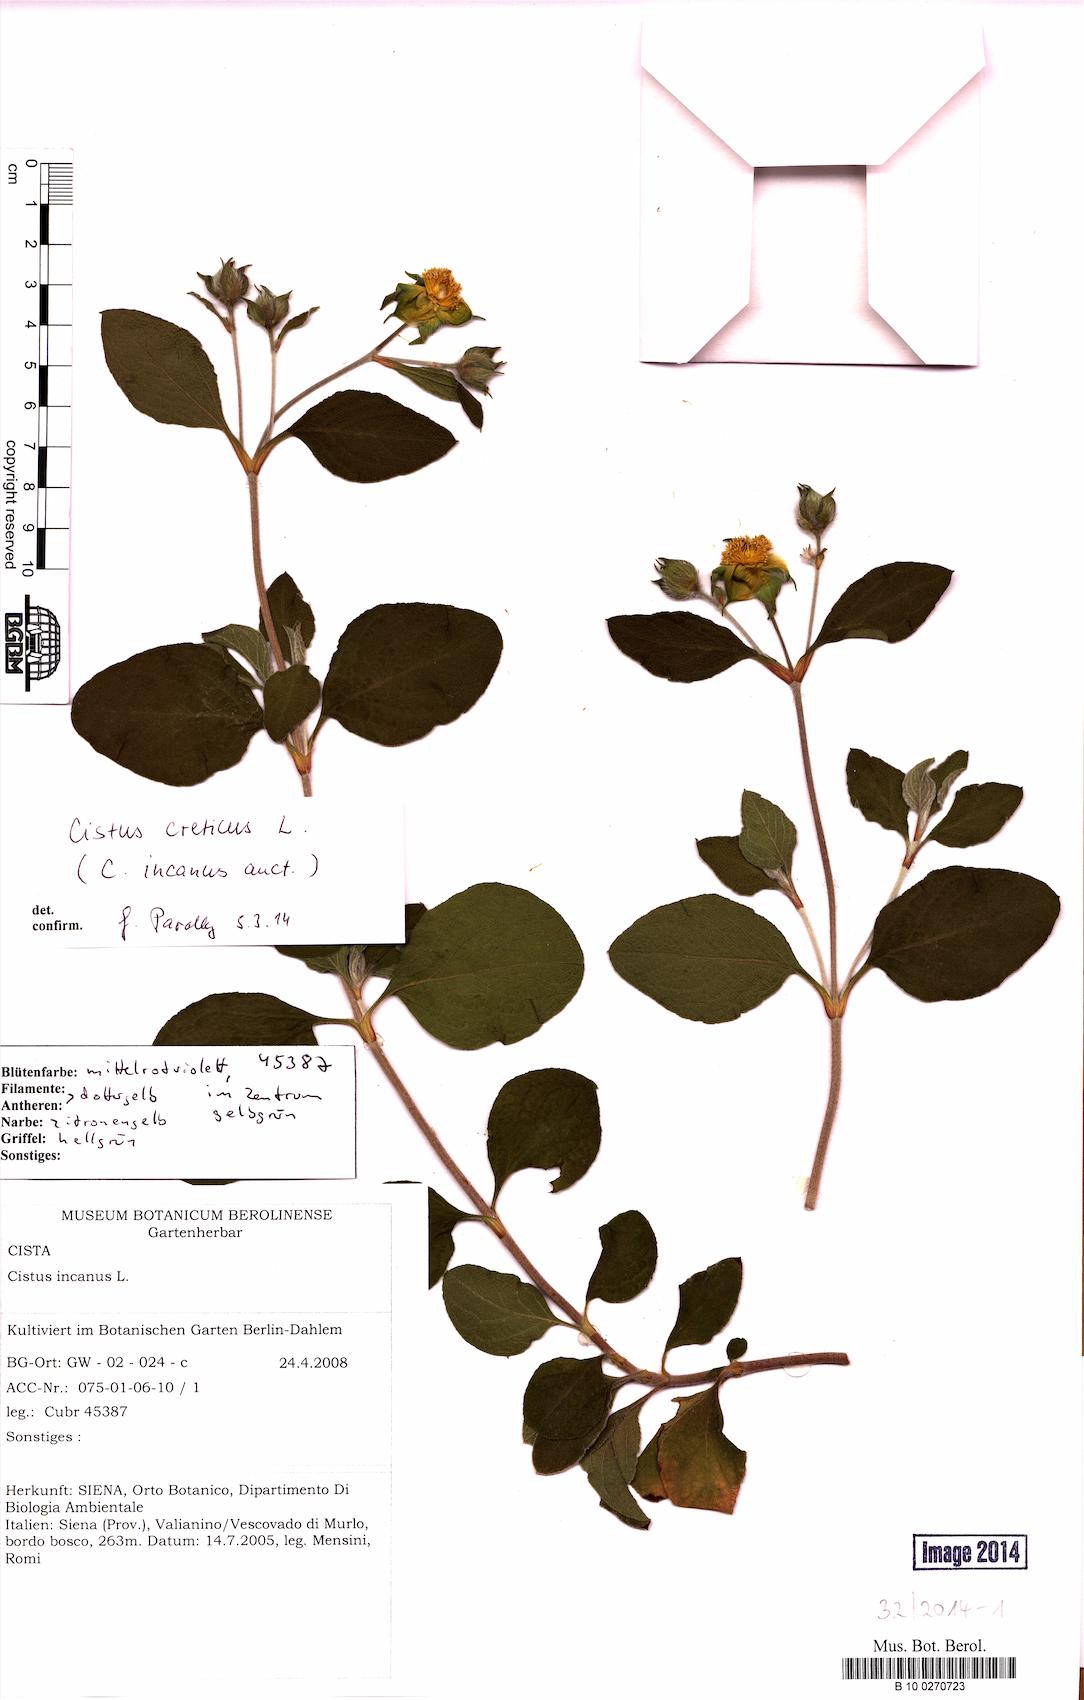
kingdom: Plantae
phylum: Tracheophyta
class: Magnoliopsida
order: Malvales
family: Cistaceae
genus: Cistus
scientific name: Cistus creticus
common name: Cretan rockrose
